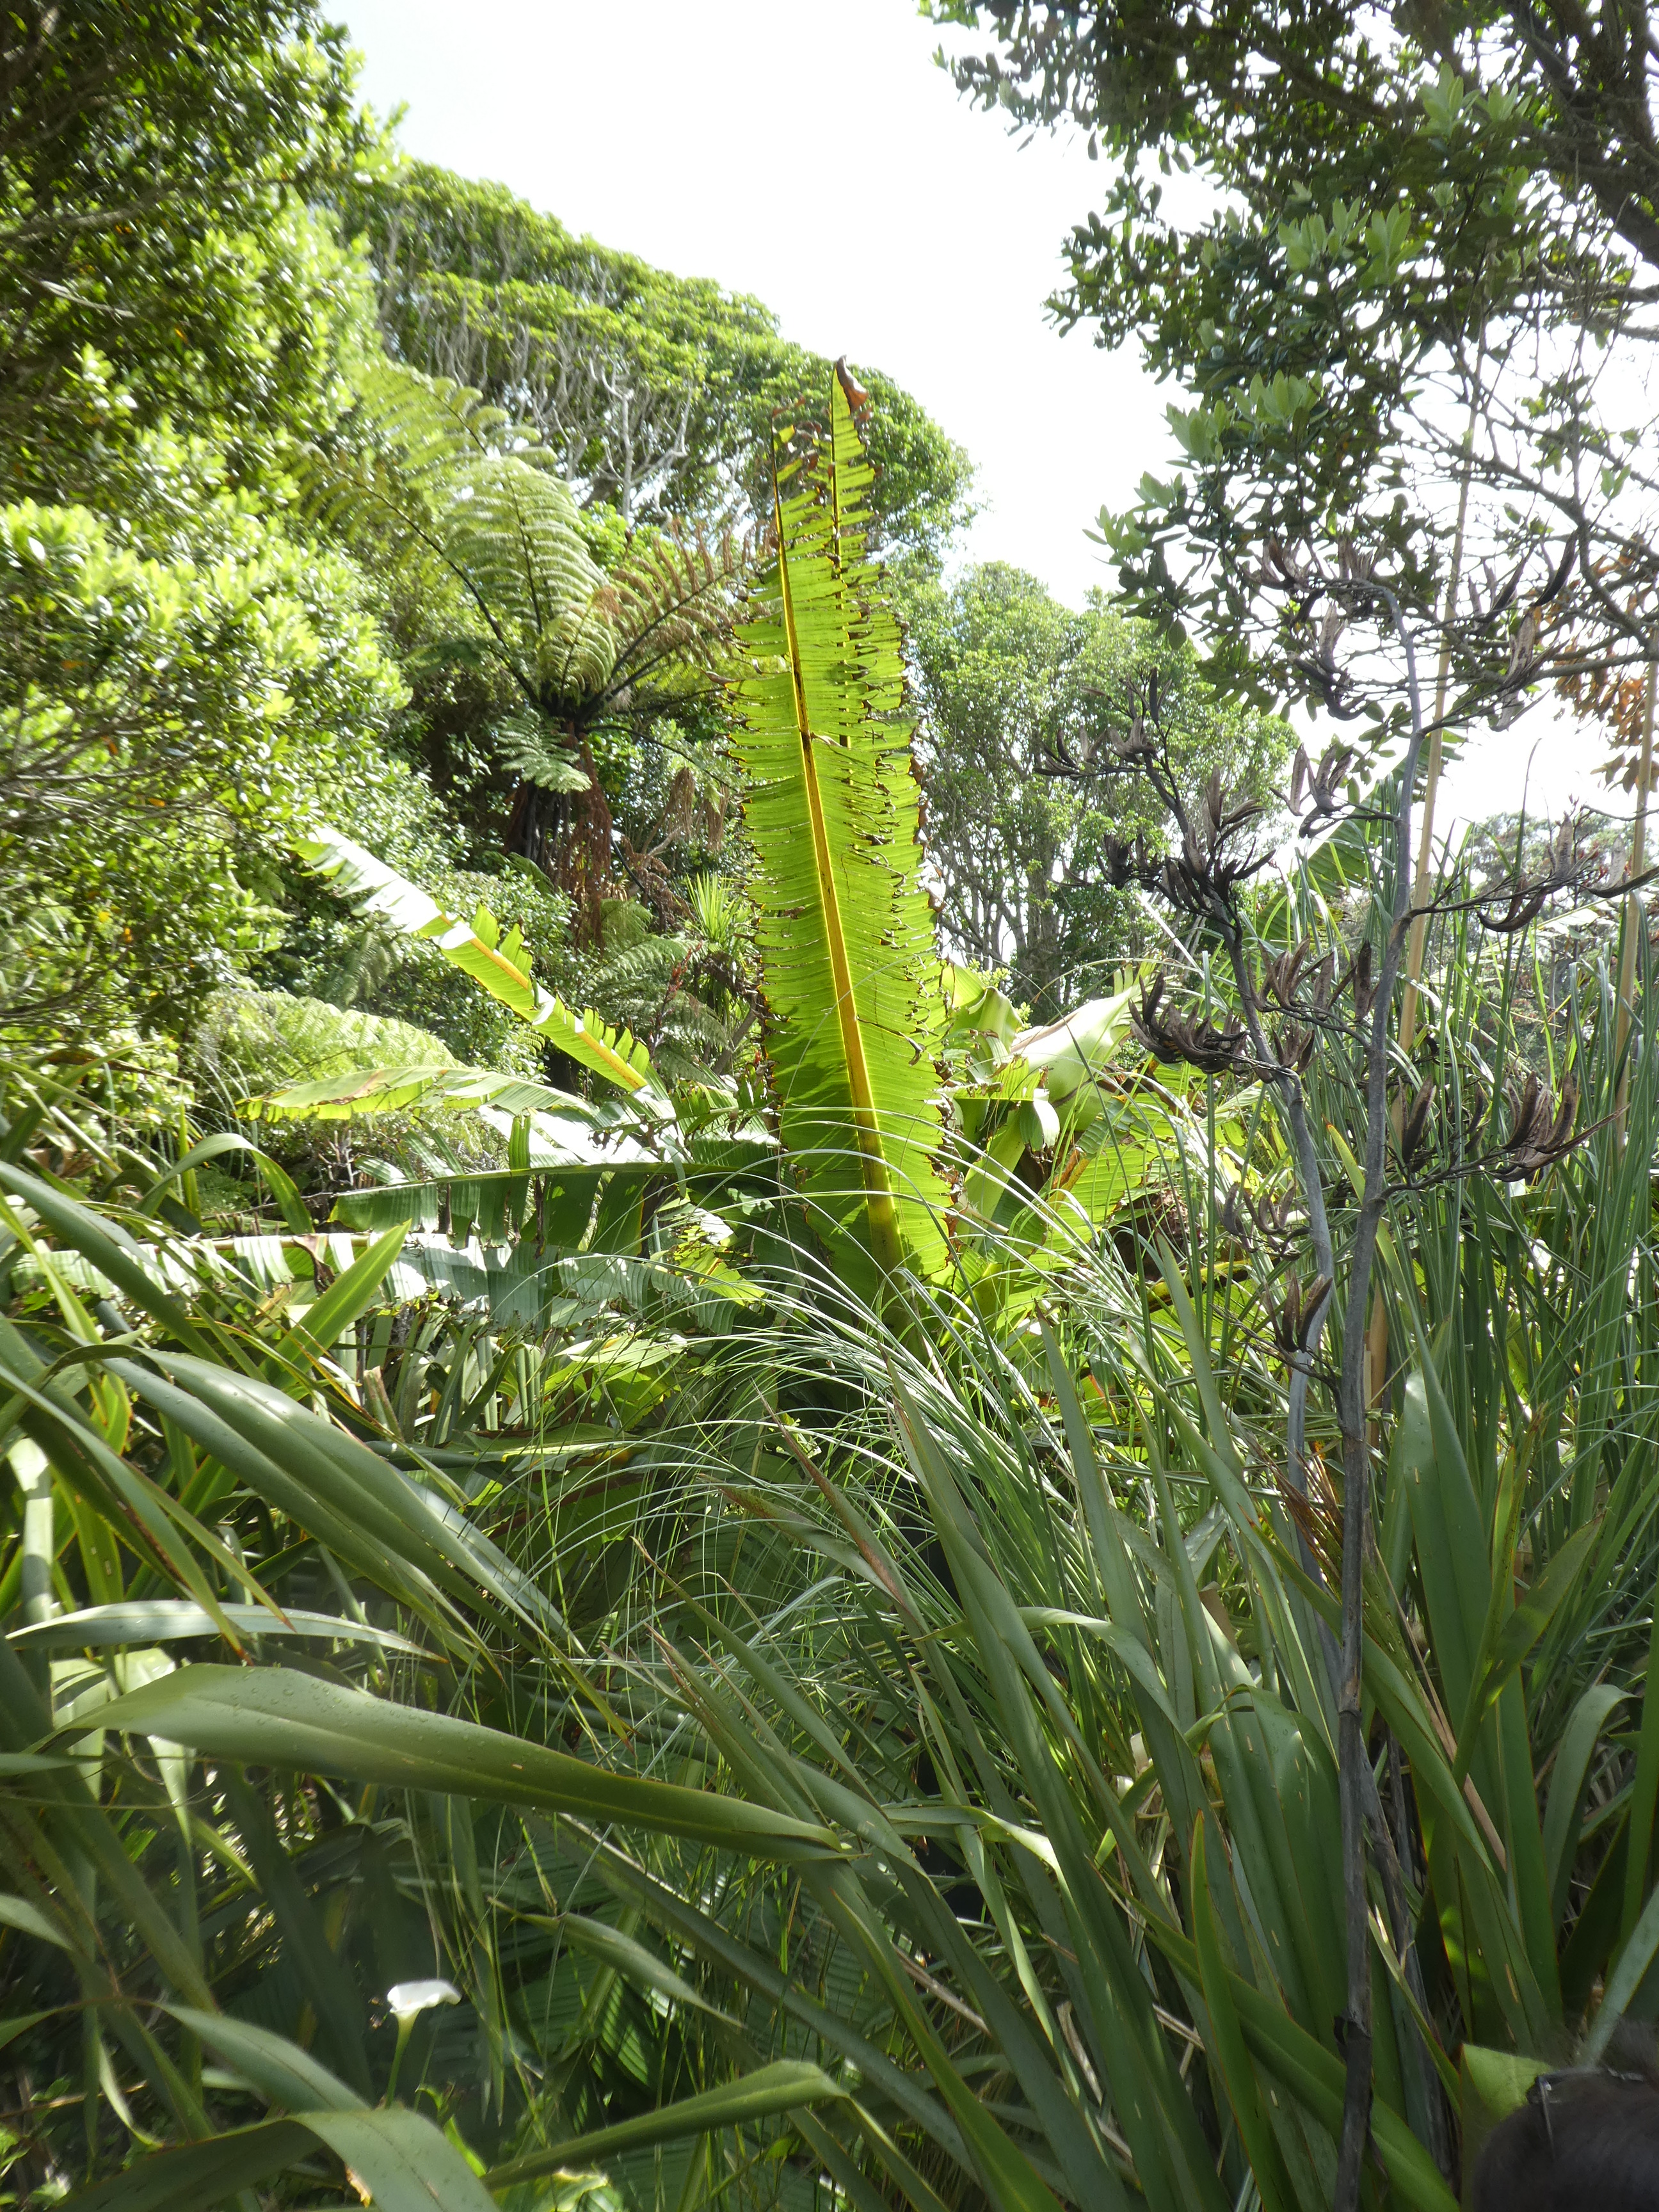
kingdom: Plantae
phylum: Tracheophyta
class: Liliopsida
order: Zingiberales
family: Musaceae
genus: Ensete
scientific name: Ensete ventricosum
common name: Abyssinian banana
